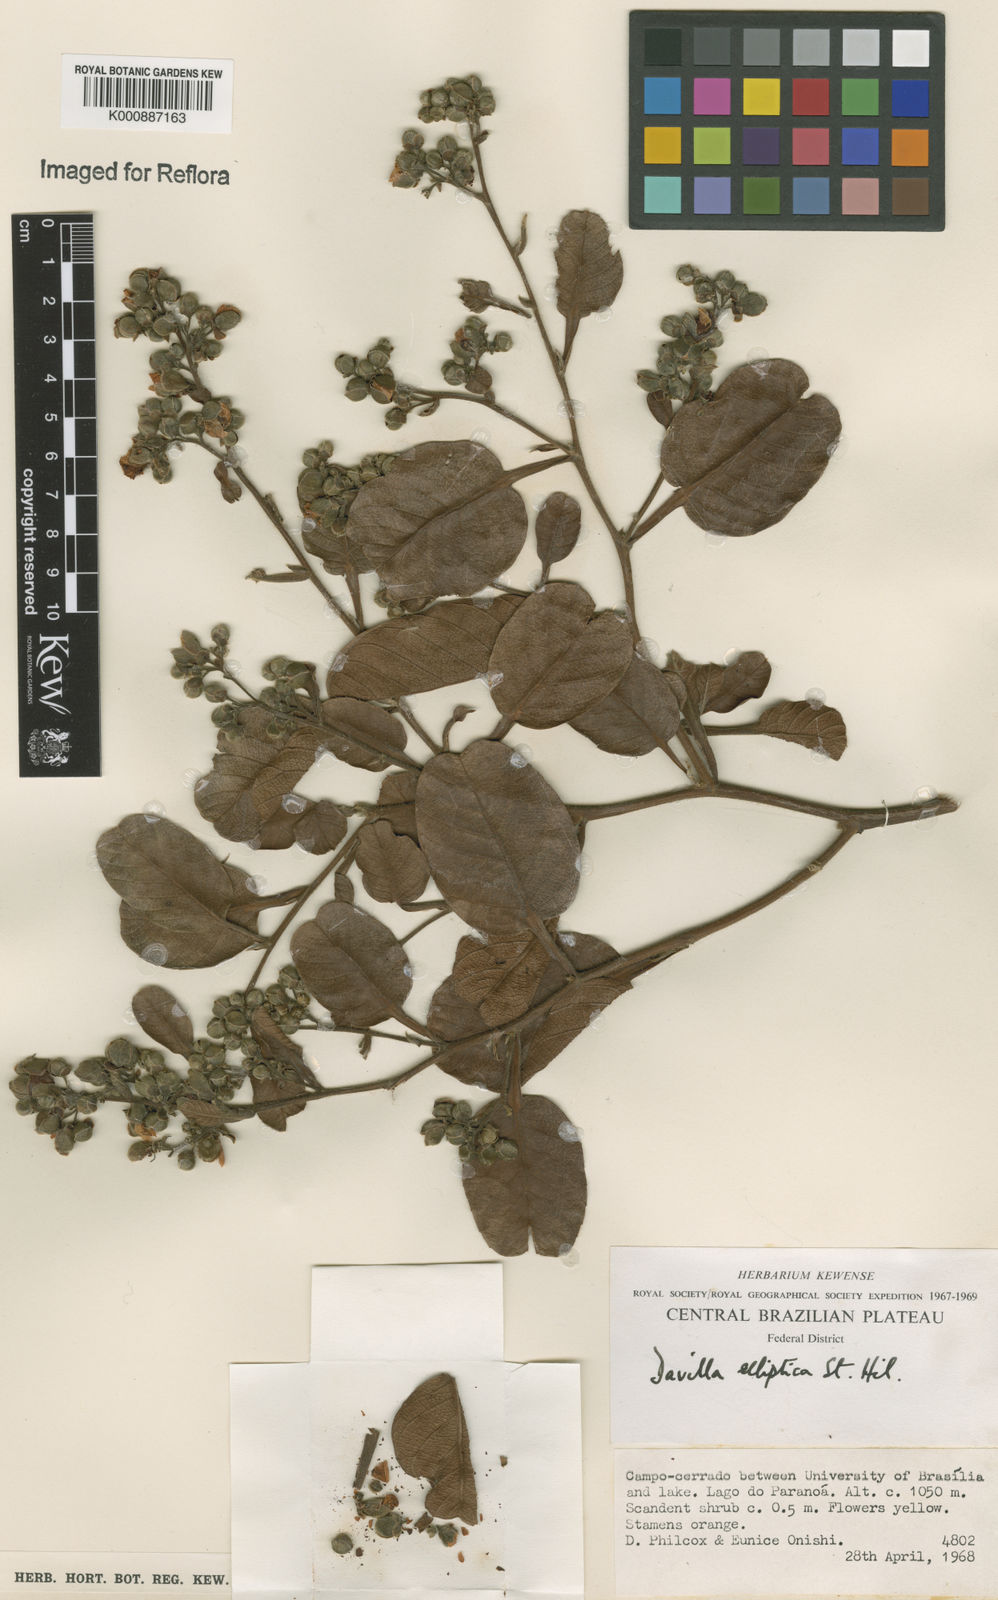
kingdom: Plantae
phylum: Tracheophyta
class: Magnoliopsida
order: Dilleniales
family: Dilleniaceae
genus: Davilla
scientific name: Davilla elliptica
